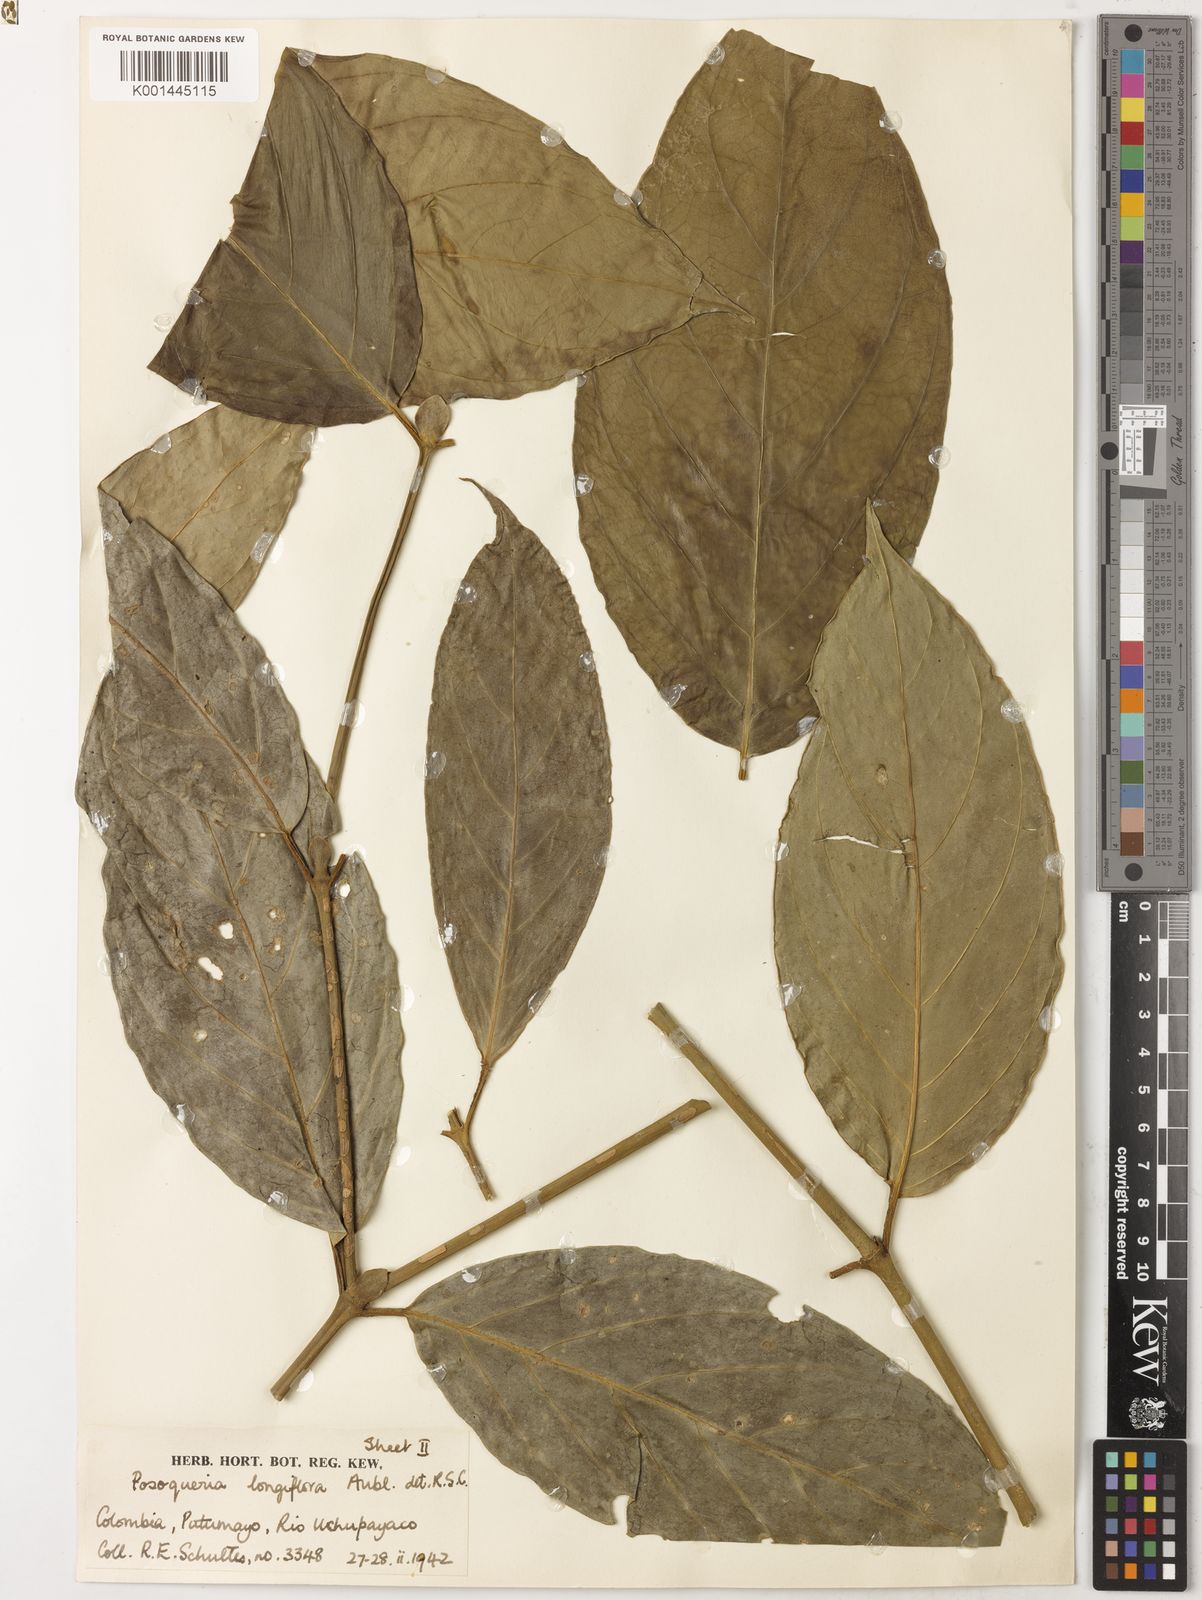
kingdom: Plantae
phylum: Tracheophyta
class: Magnoliopsida
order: Gentianales
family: Rubiaceae
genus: Posoqueria
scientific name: Posoqueria longiflora
